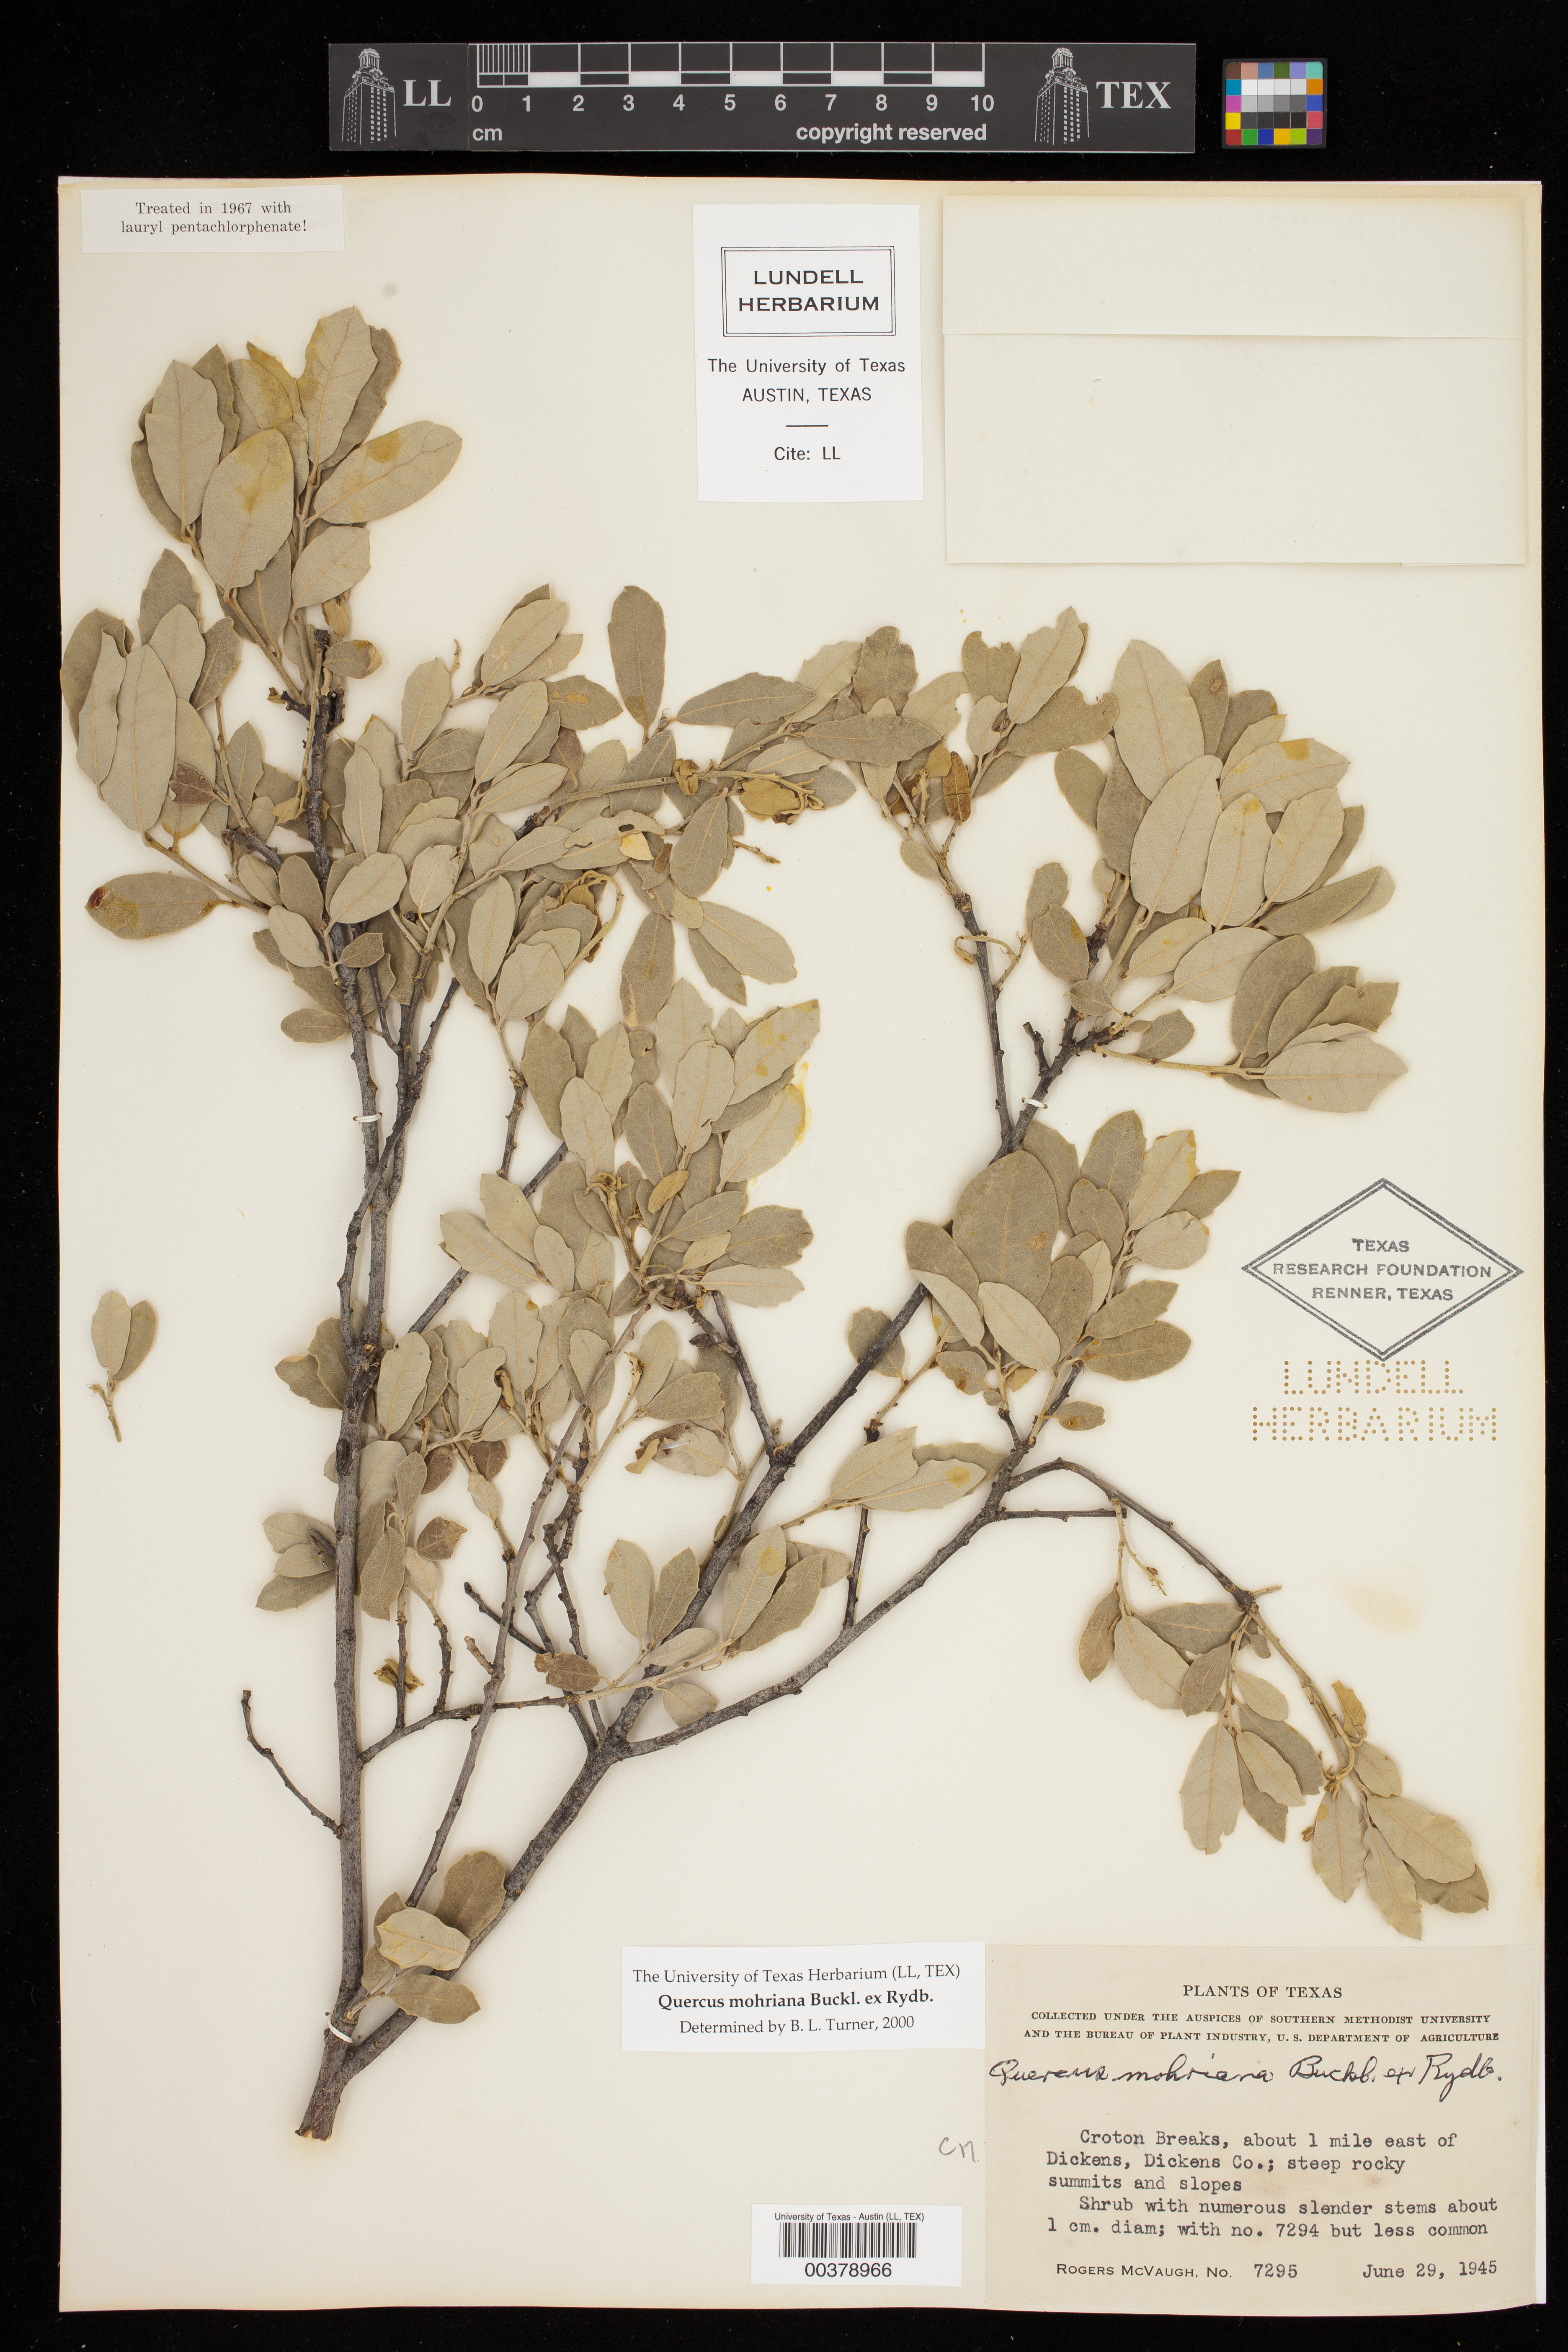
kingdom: Plantae
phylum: Tracheophyta
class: Magnoliopsida
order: Fagales
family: Fagaceae
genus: Quercus
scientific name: Quercus mohriana
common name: Mohr oak
